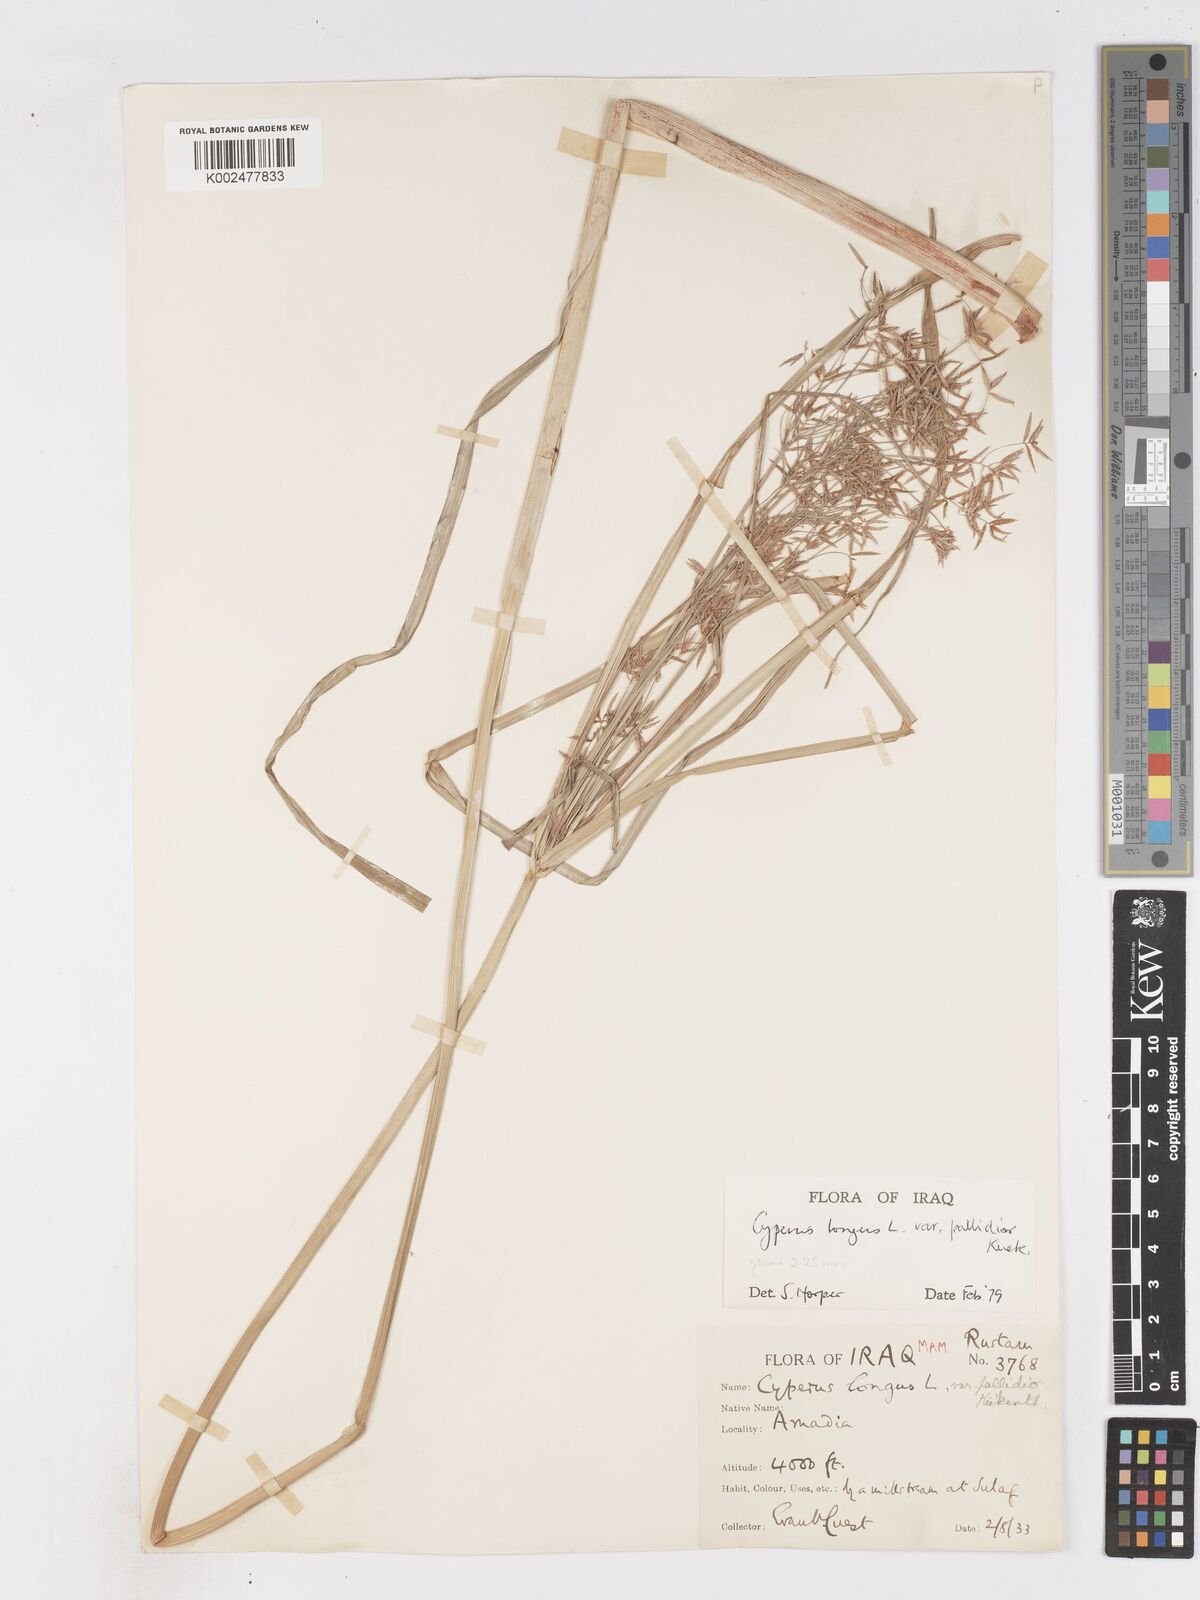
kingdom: Plantae
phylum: Tracheophyta
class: Liliopsida
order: Poales
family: Cyperaceae
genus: Cyperus
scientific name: Cyperus longus
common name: Galingale
